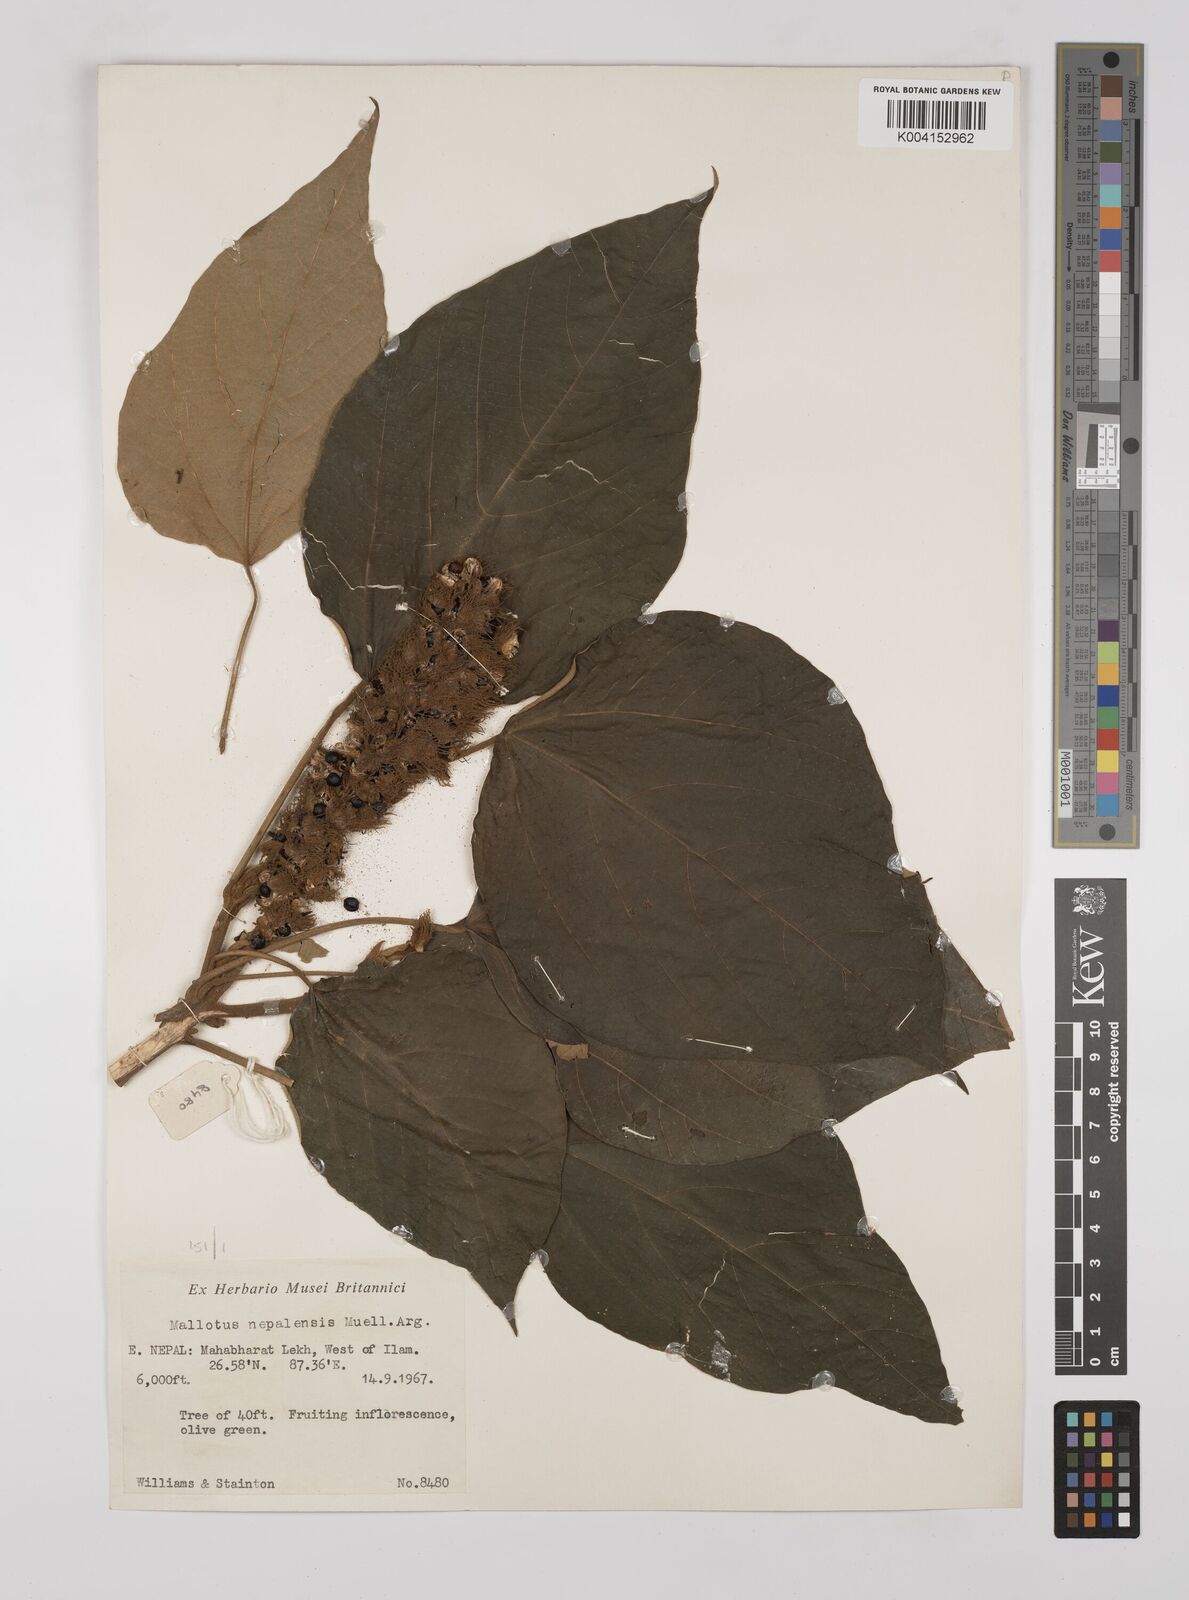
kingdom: Plantae
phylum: Tracheophyta
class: Magnoliopsida
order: Malpighiales
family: Euphorbiaceae
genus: Mallotus
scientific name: Mallotus nepalensis
